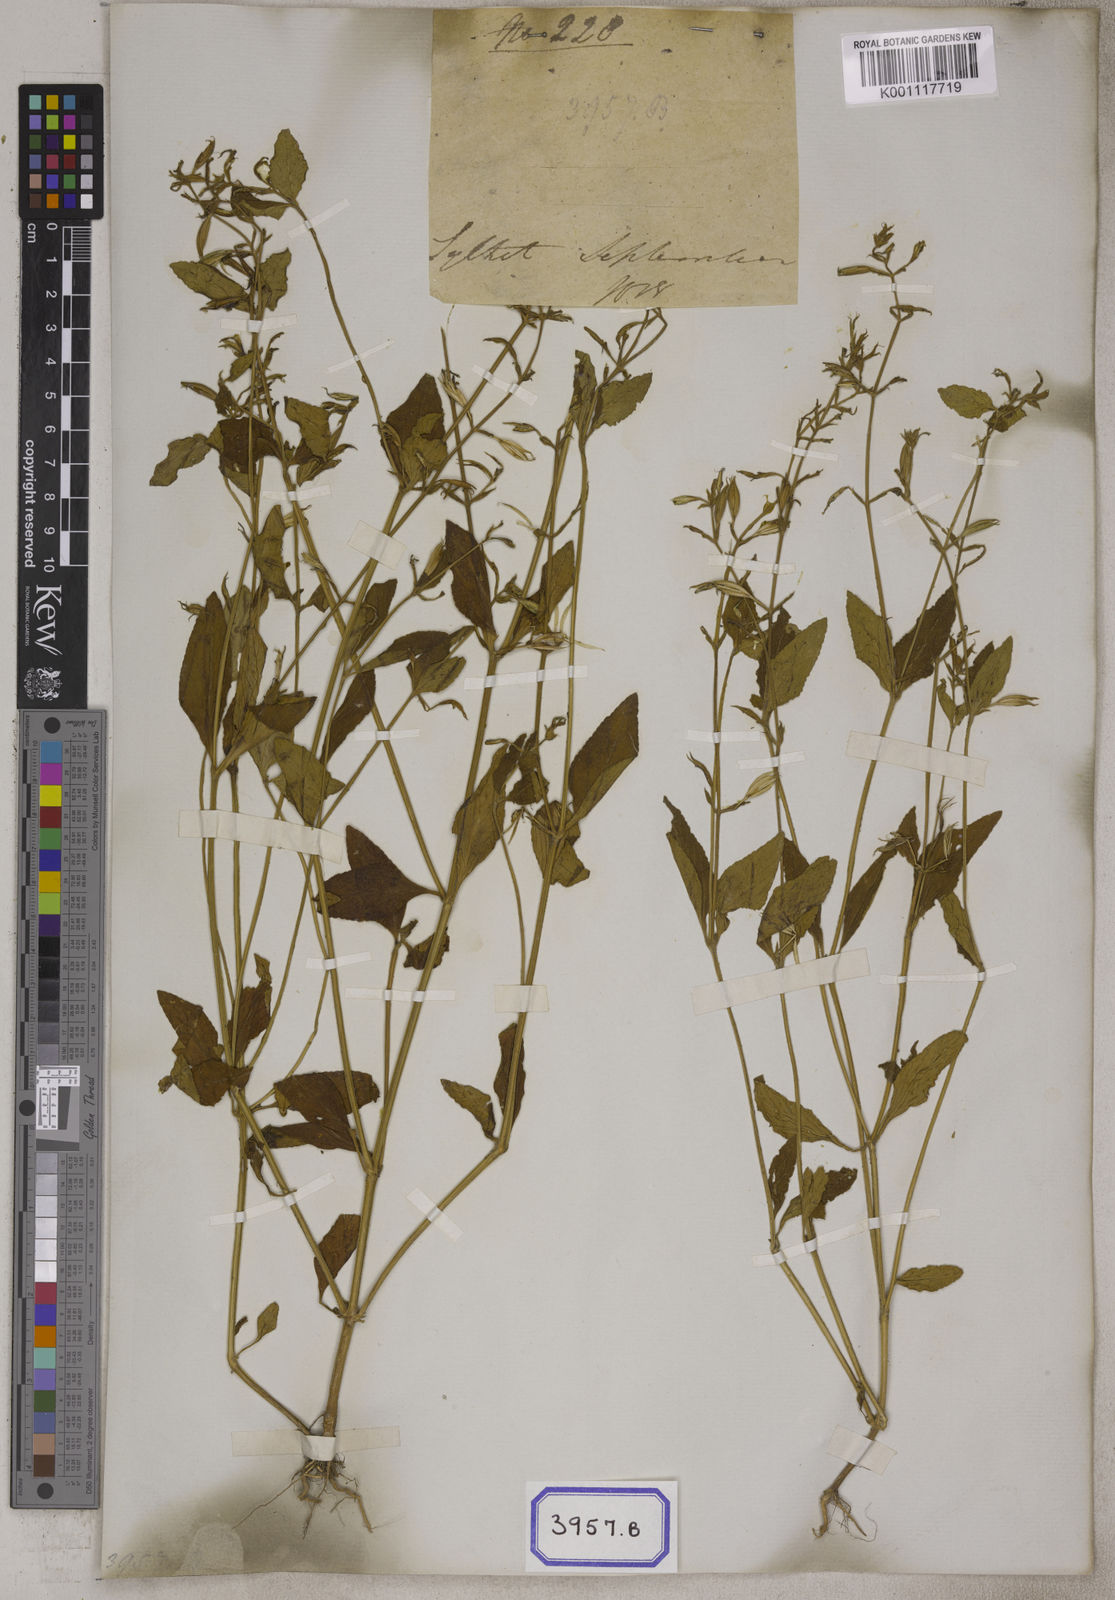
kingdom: Plantae
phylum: Tracheophyta
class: Magnoliopsida
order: Lamiales
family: Linderniaceae
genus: Torenia
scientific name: Torenia
